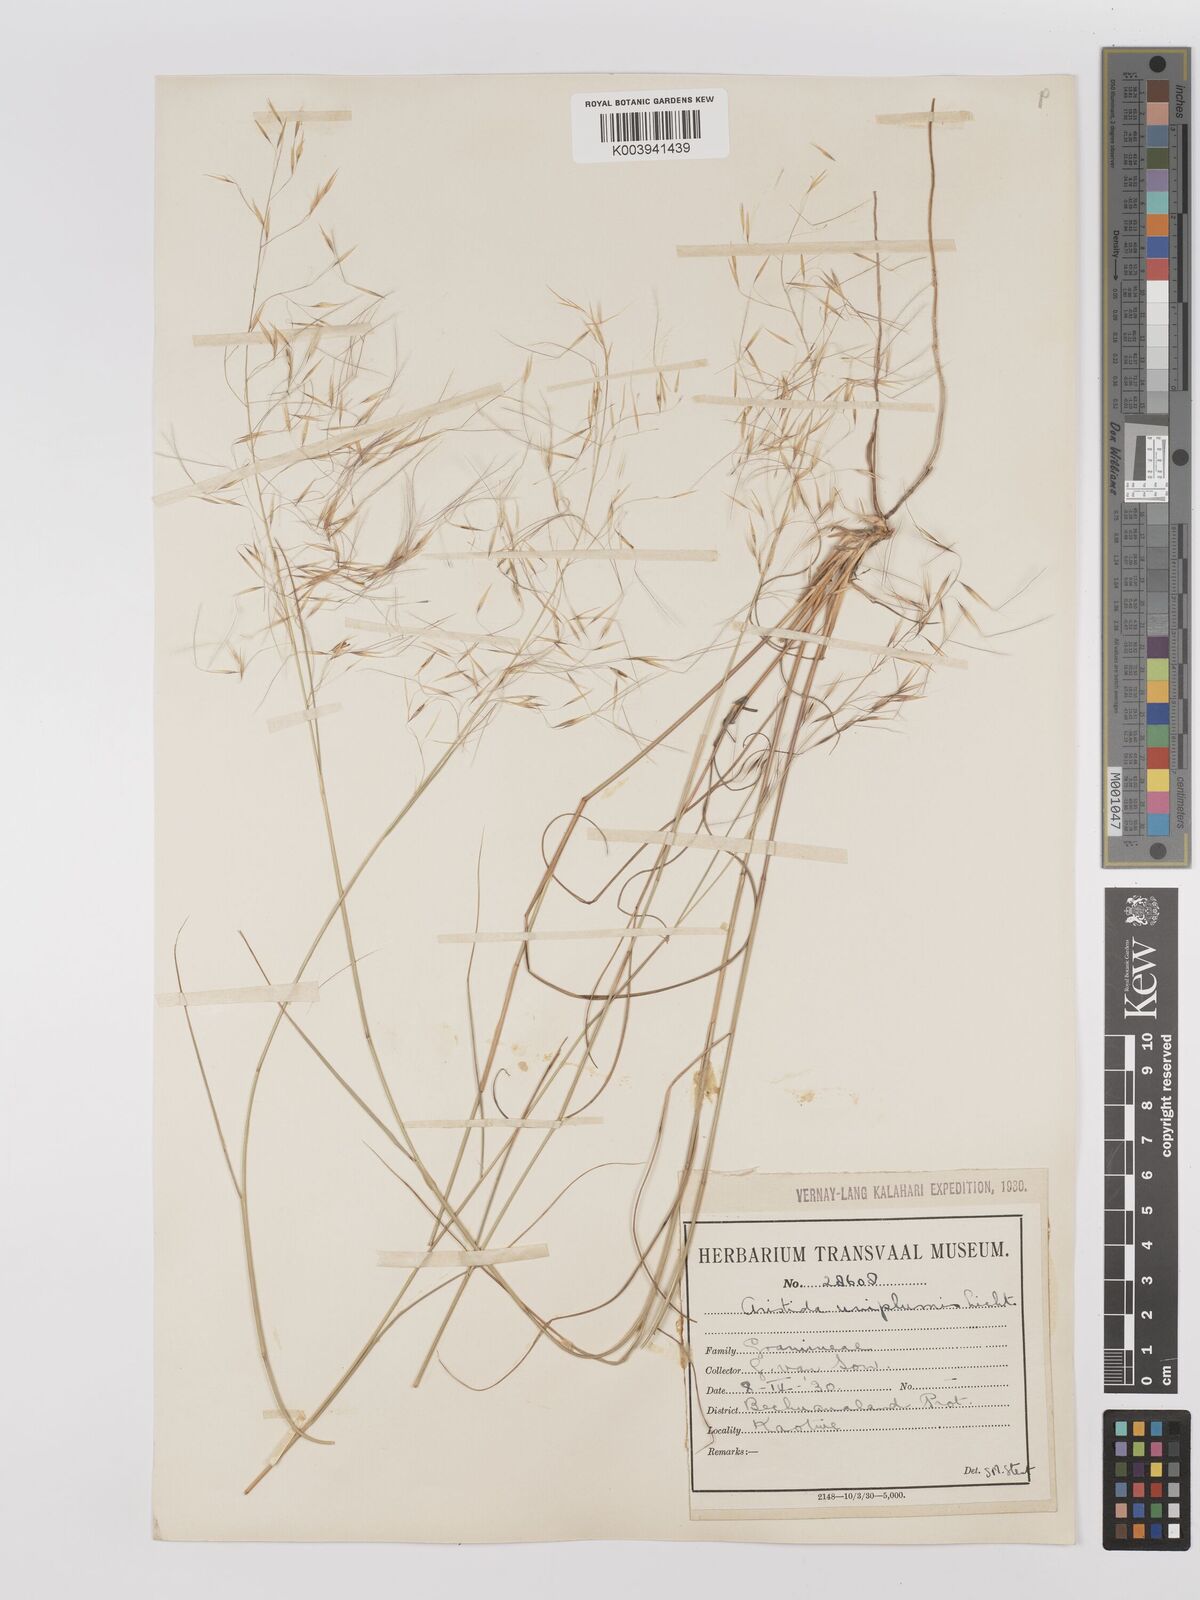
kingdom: Plantae
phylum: Tracheophyta
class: Liliopsida
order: Poales
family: Poaceae
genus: Stipagrostis
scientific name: Stipagrostis uniplumis
